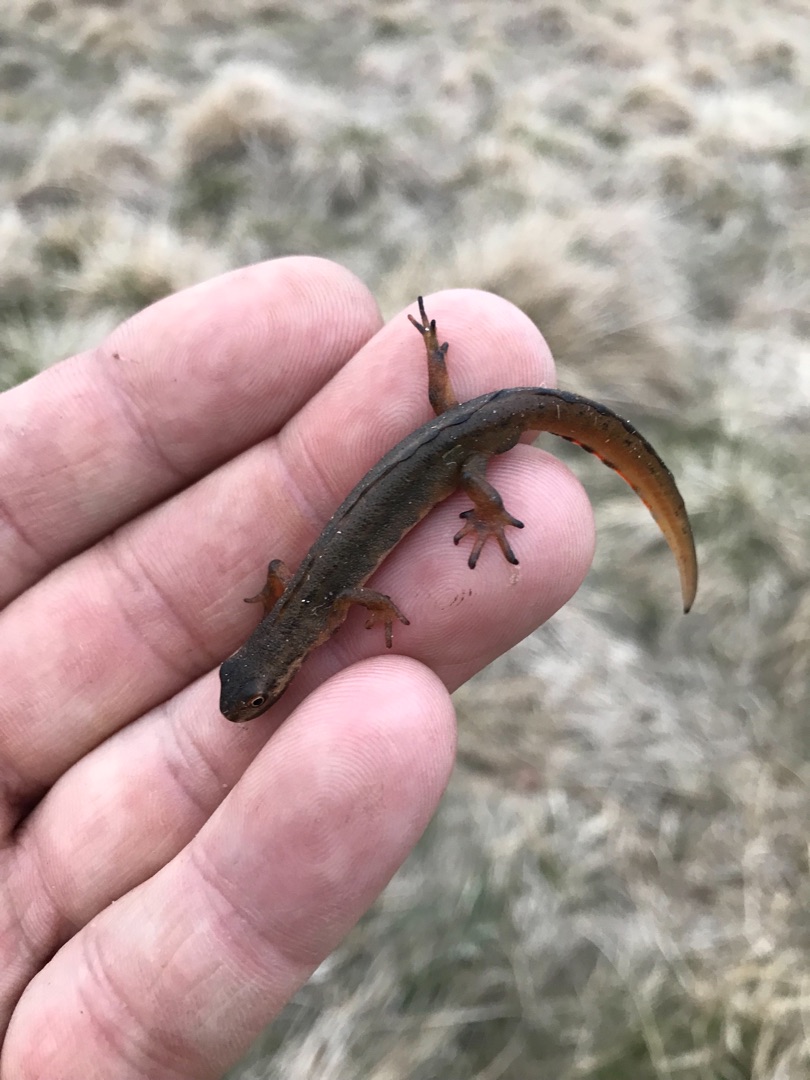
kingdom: Animalia
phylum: Chordata
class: Amphibia
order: Caudata
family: Salamandridae
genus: Lissotriton
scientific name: Lissotriton vulgaris
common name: Lille vandsalamander
